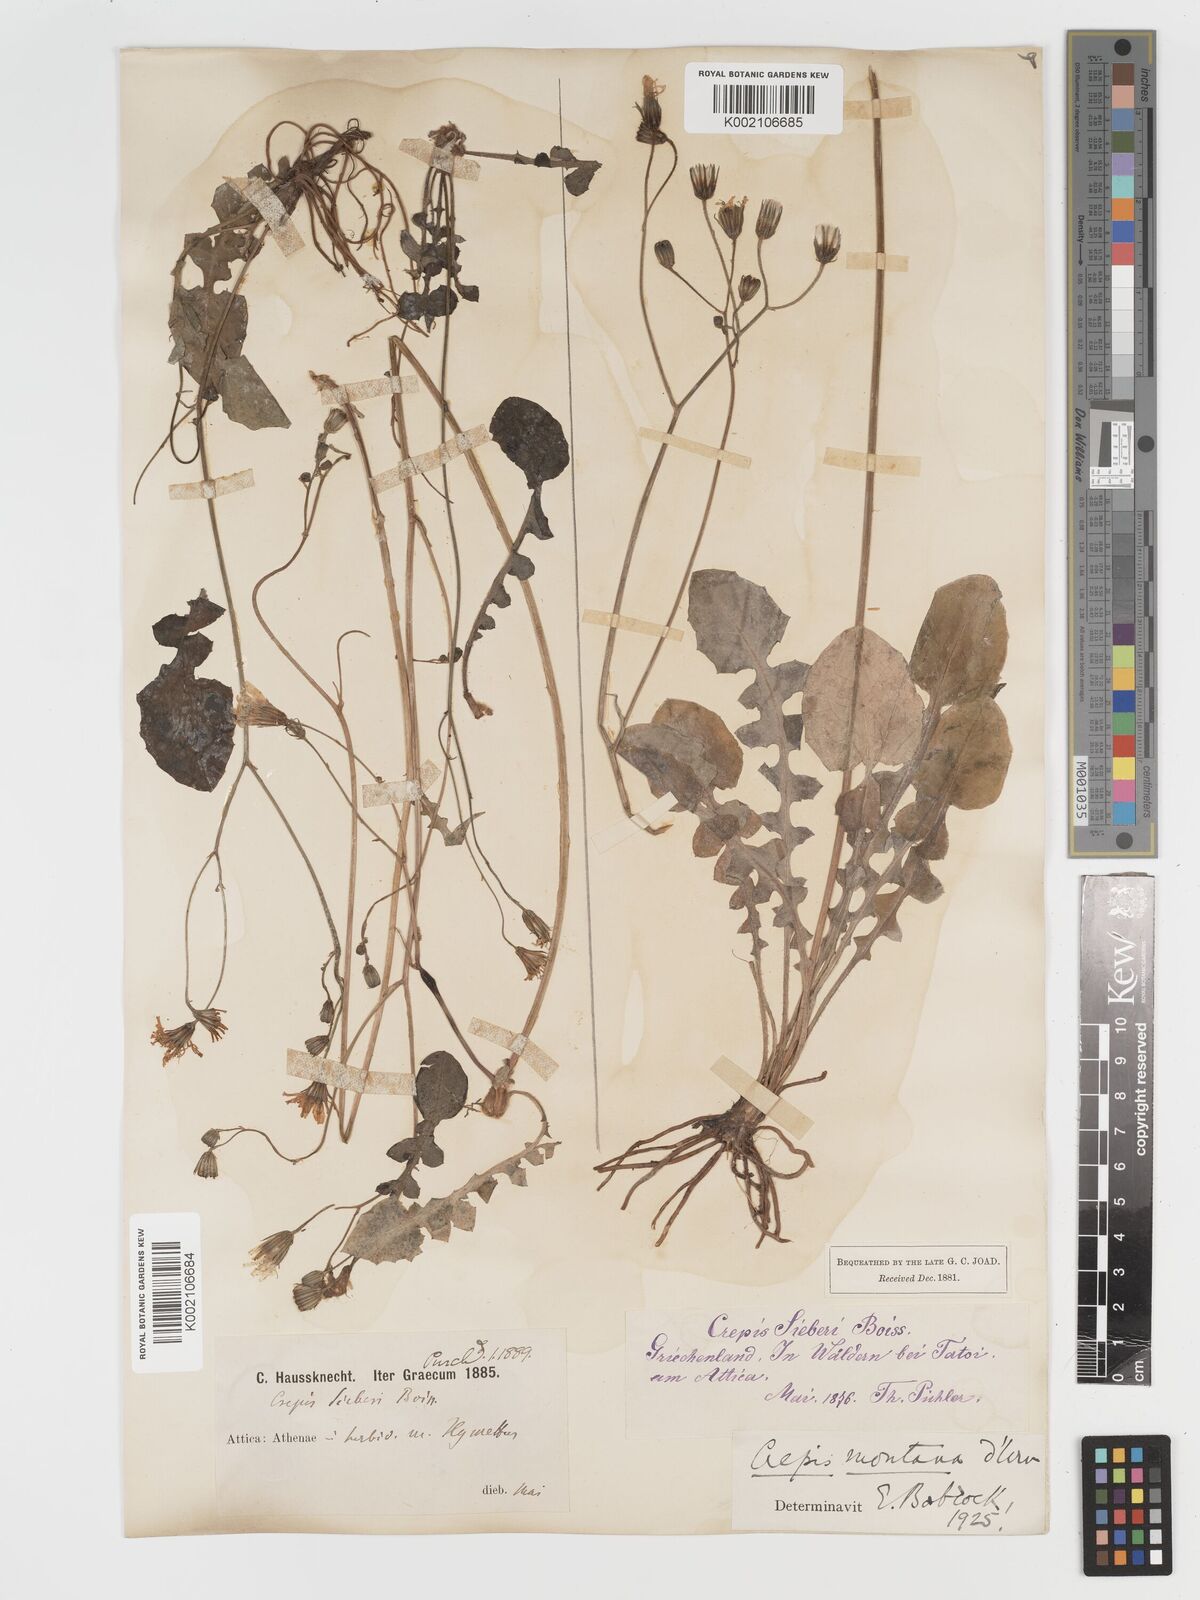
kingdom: Plantae
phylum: Tracheophyta
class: Magnoliopsida
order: Asterales
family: Asteraceae
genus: Crepis
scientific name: Crepis
